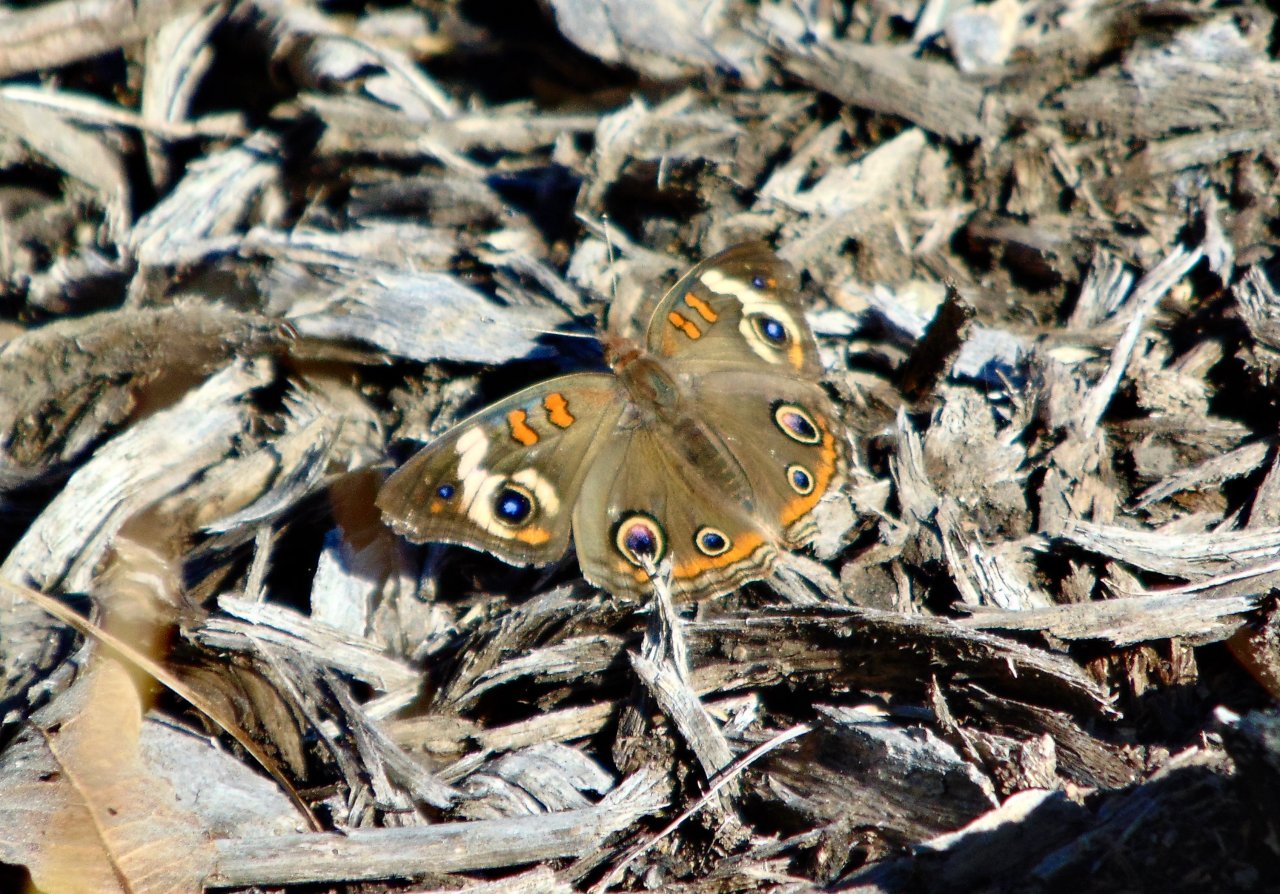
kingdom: Animalia
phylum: Arthropoda
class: Insecta
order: Lepidoptera
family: Nymphalidae
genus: Junonia
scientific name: Junonia coenia
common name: Common Buckeye
